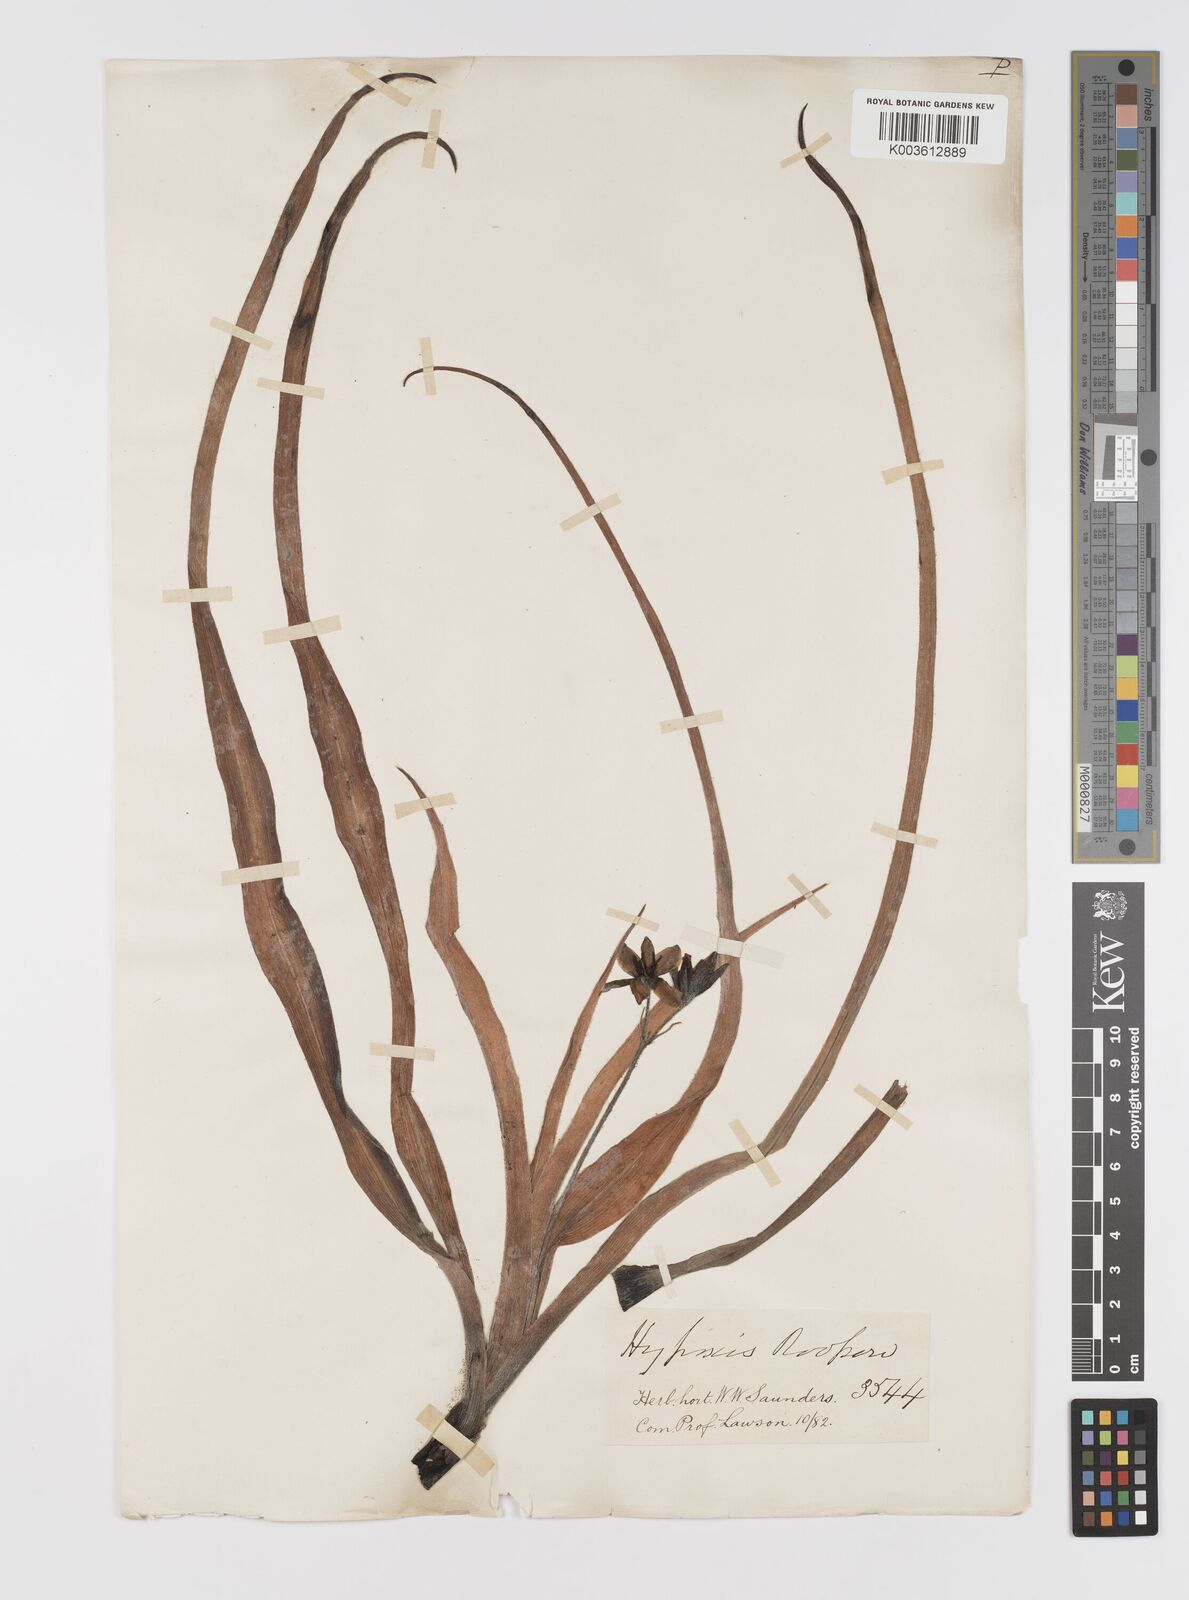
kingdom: Plantae
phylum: Tracheophyta
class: Liliopsida
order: Asparagales
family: Hypoxidaceae
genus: Hypoxis
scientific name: Hypoxis hemerocallidea
